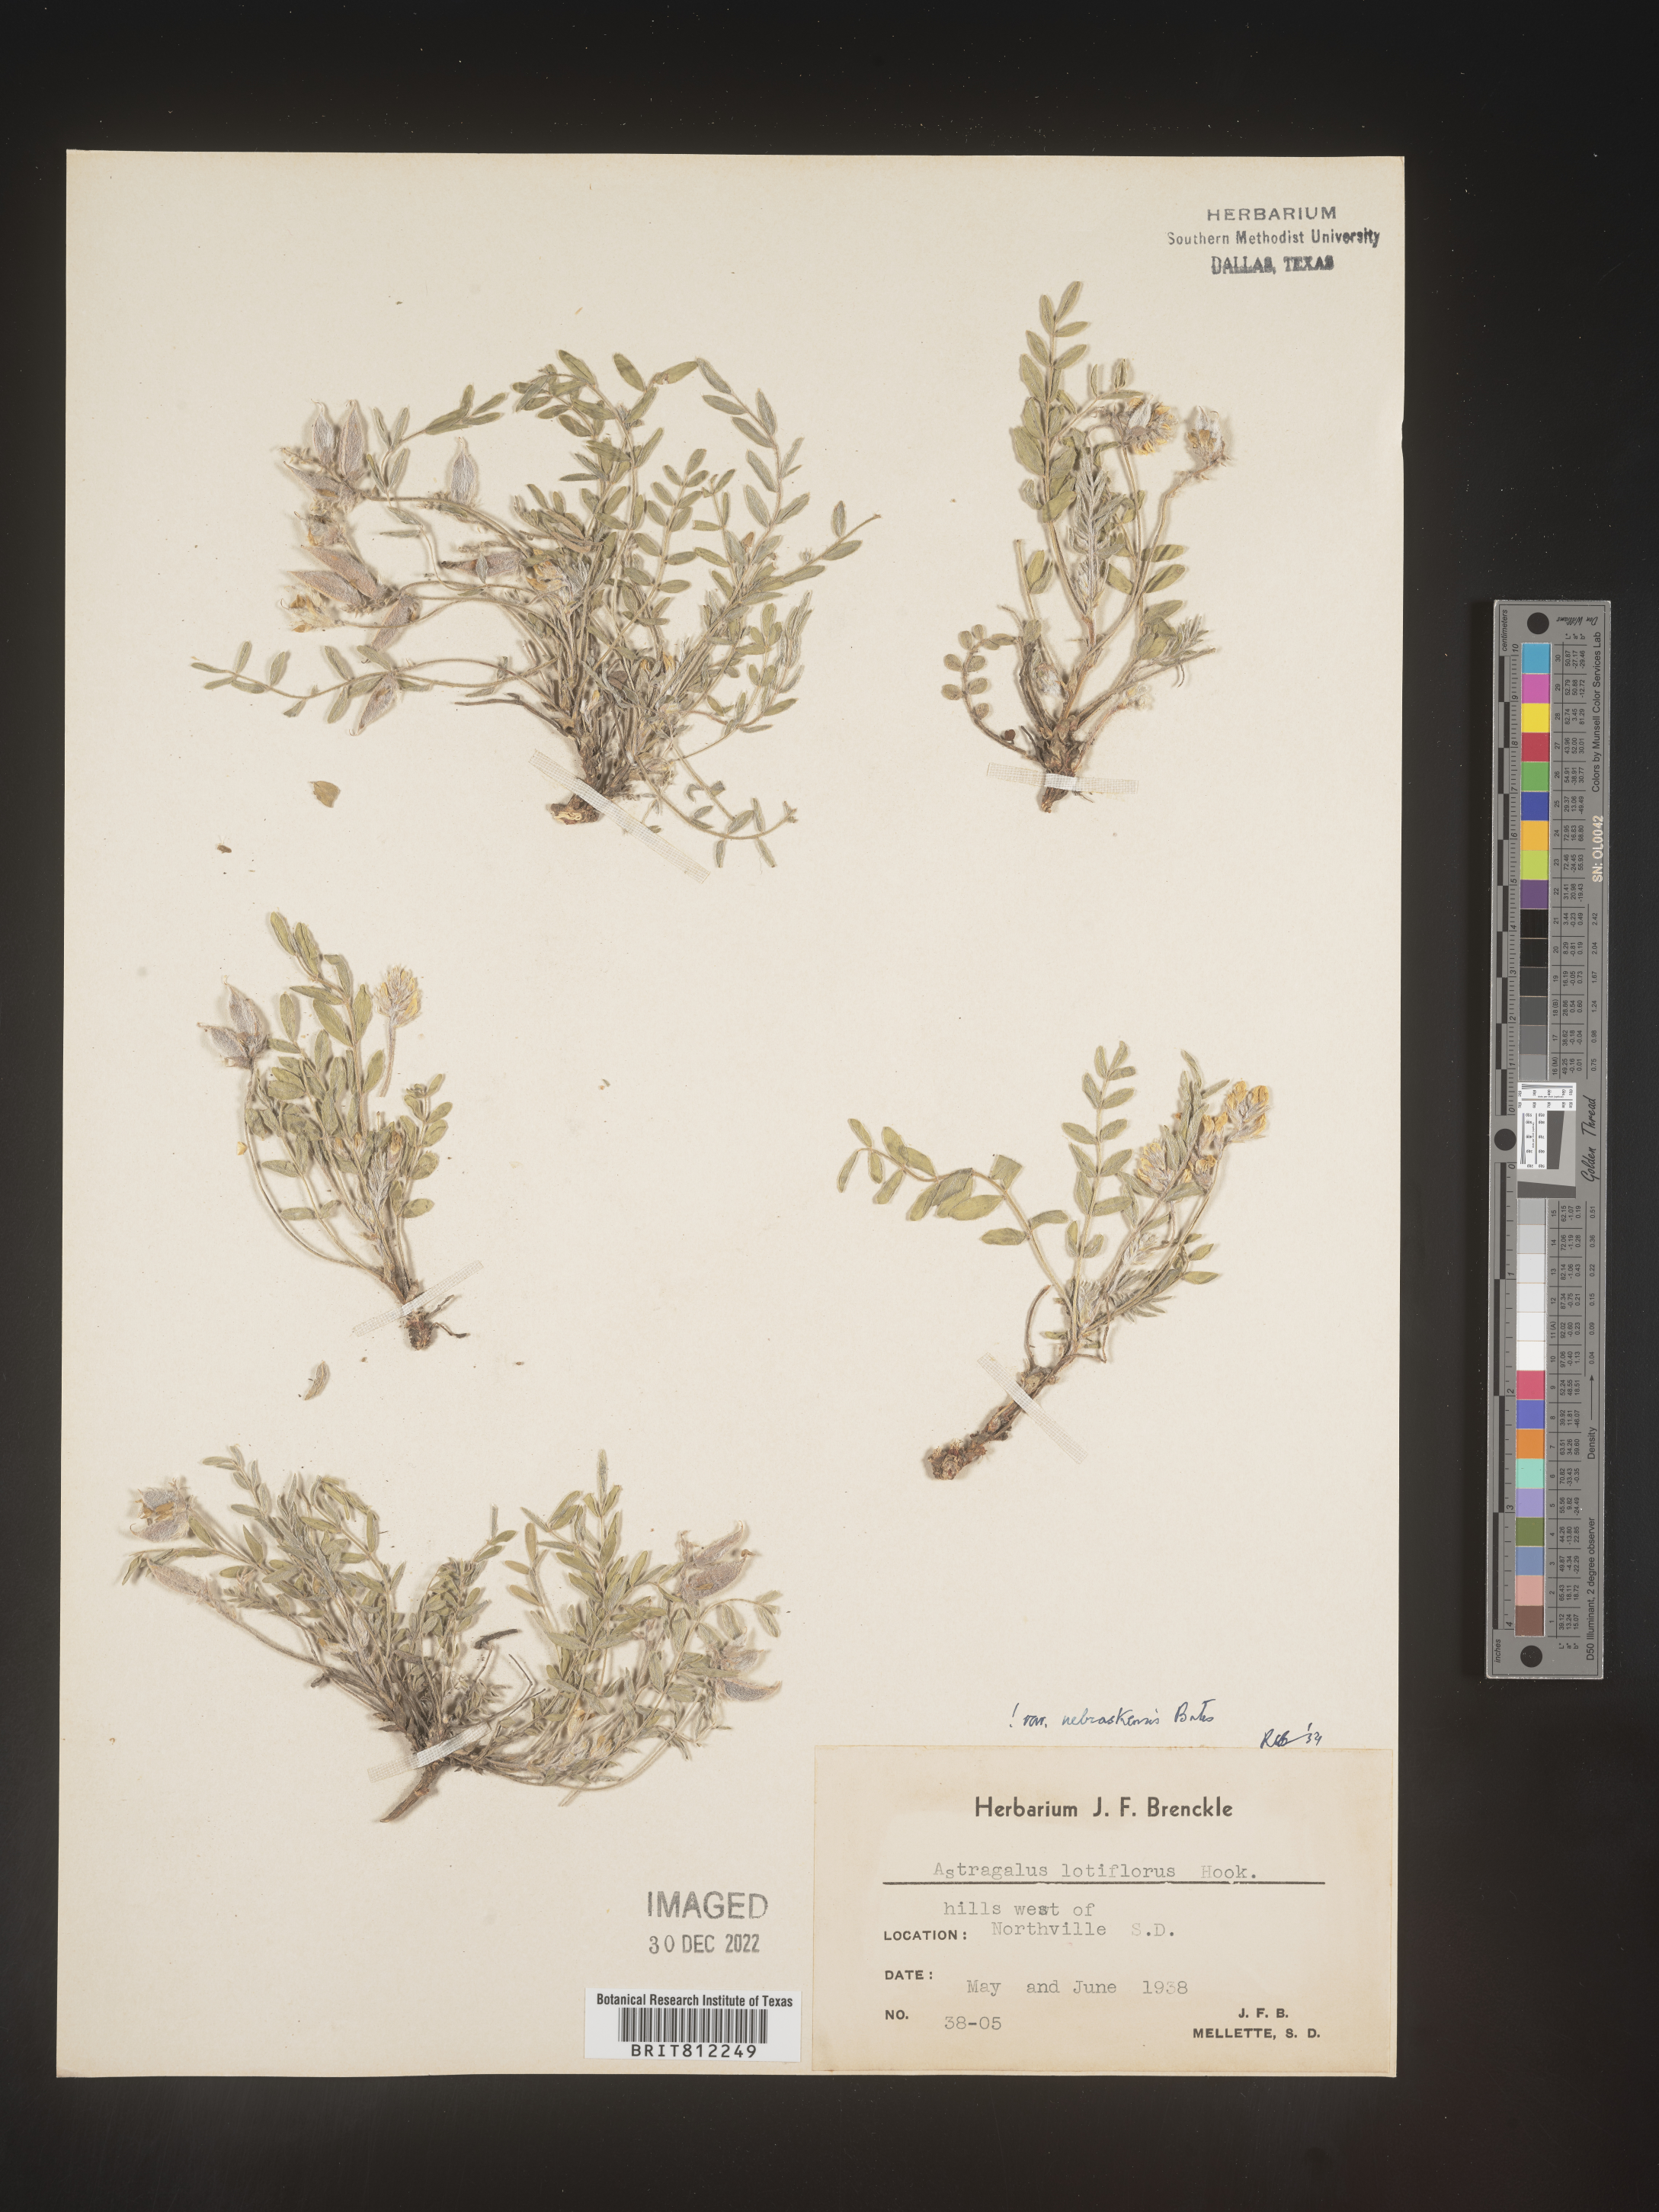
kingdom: Plantae
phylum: Tracheophyta
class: Magnoliopsida
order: Fabales
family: Fabaceae
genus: Astragalus
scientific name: Astragalus lotiflorus
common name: Lotus milk-vetch
